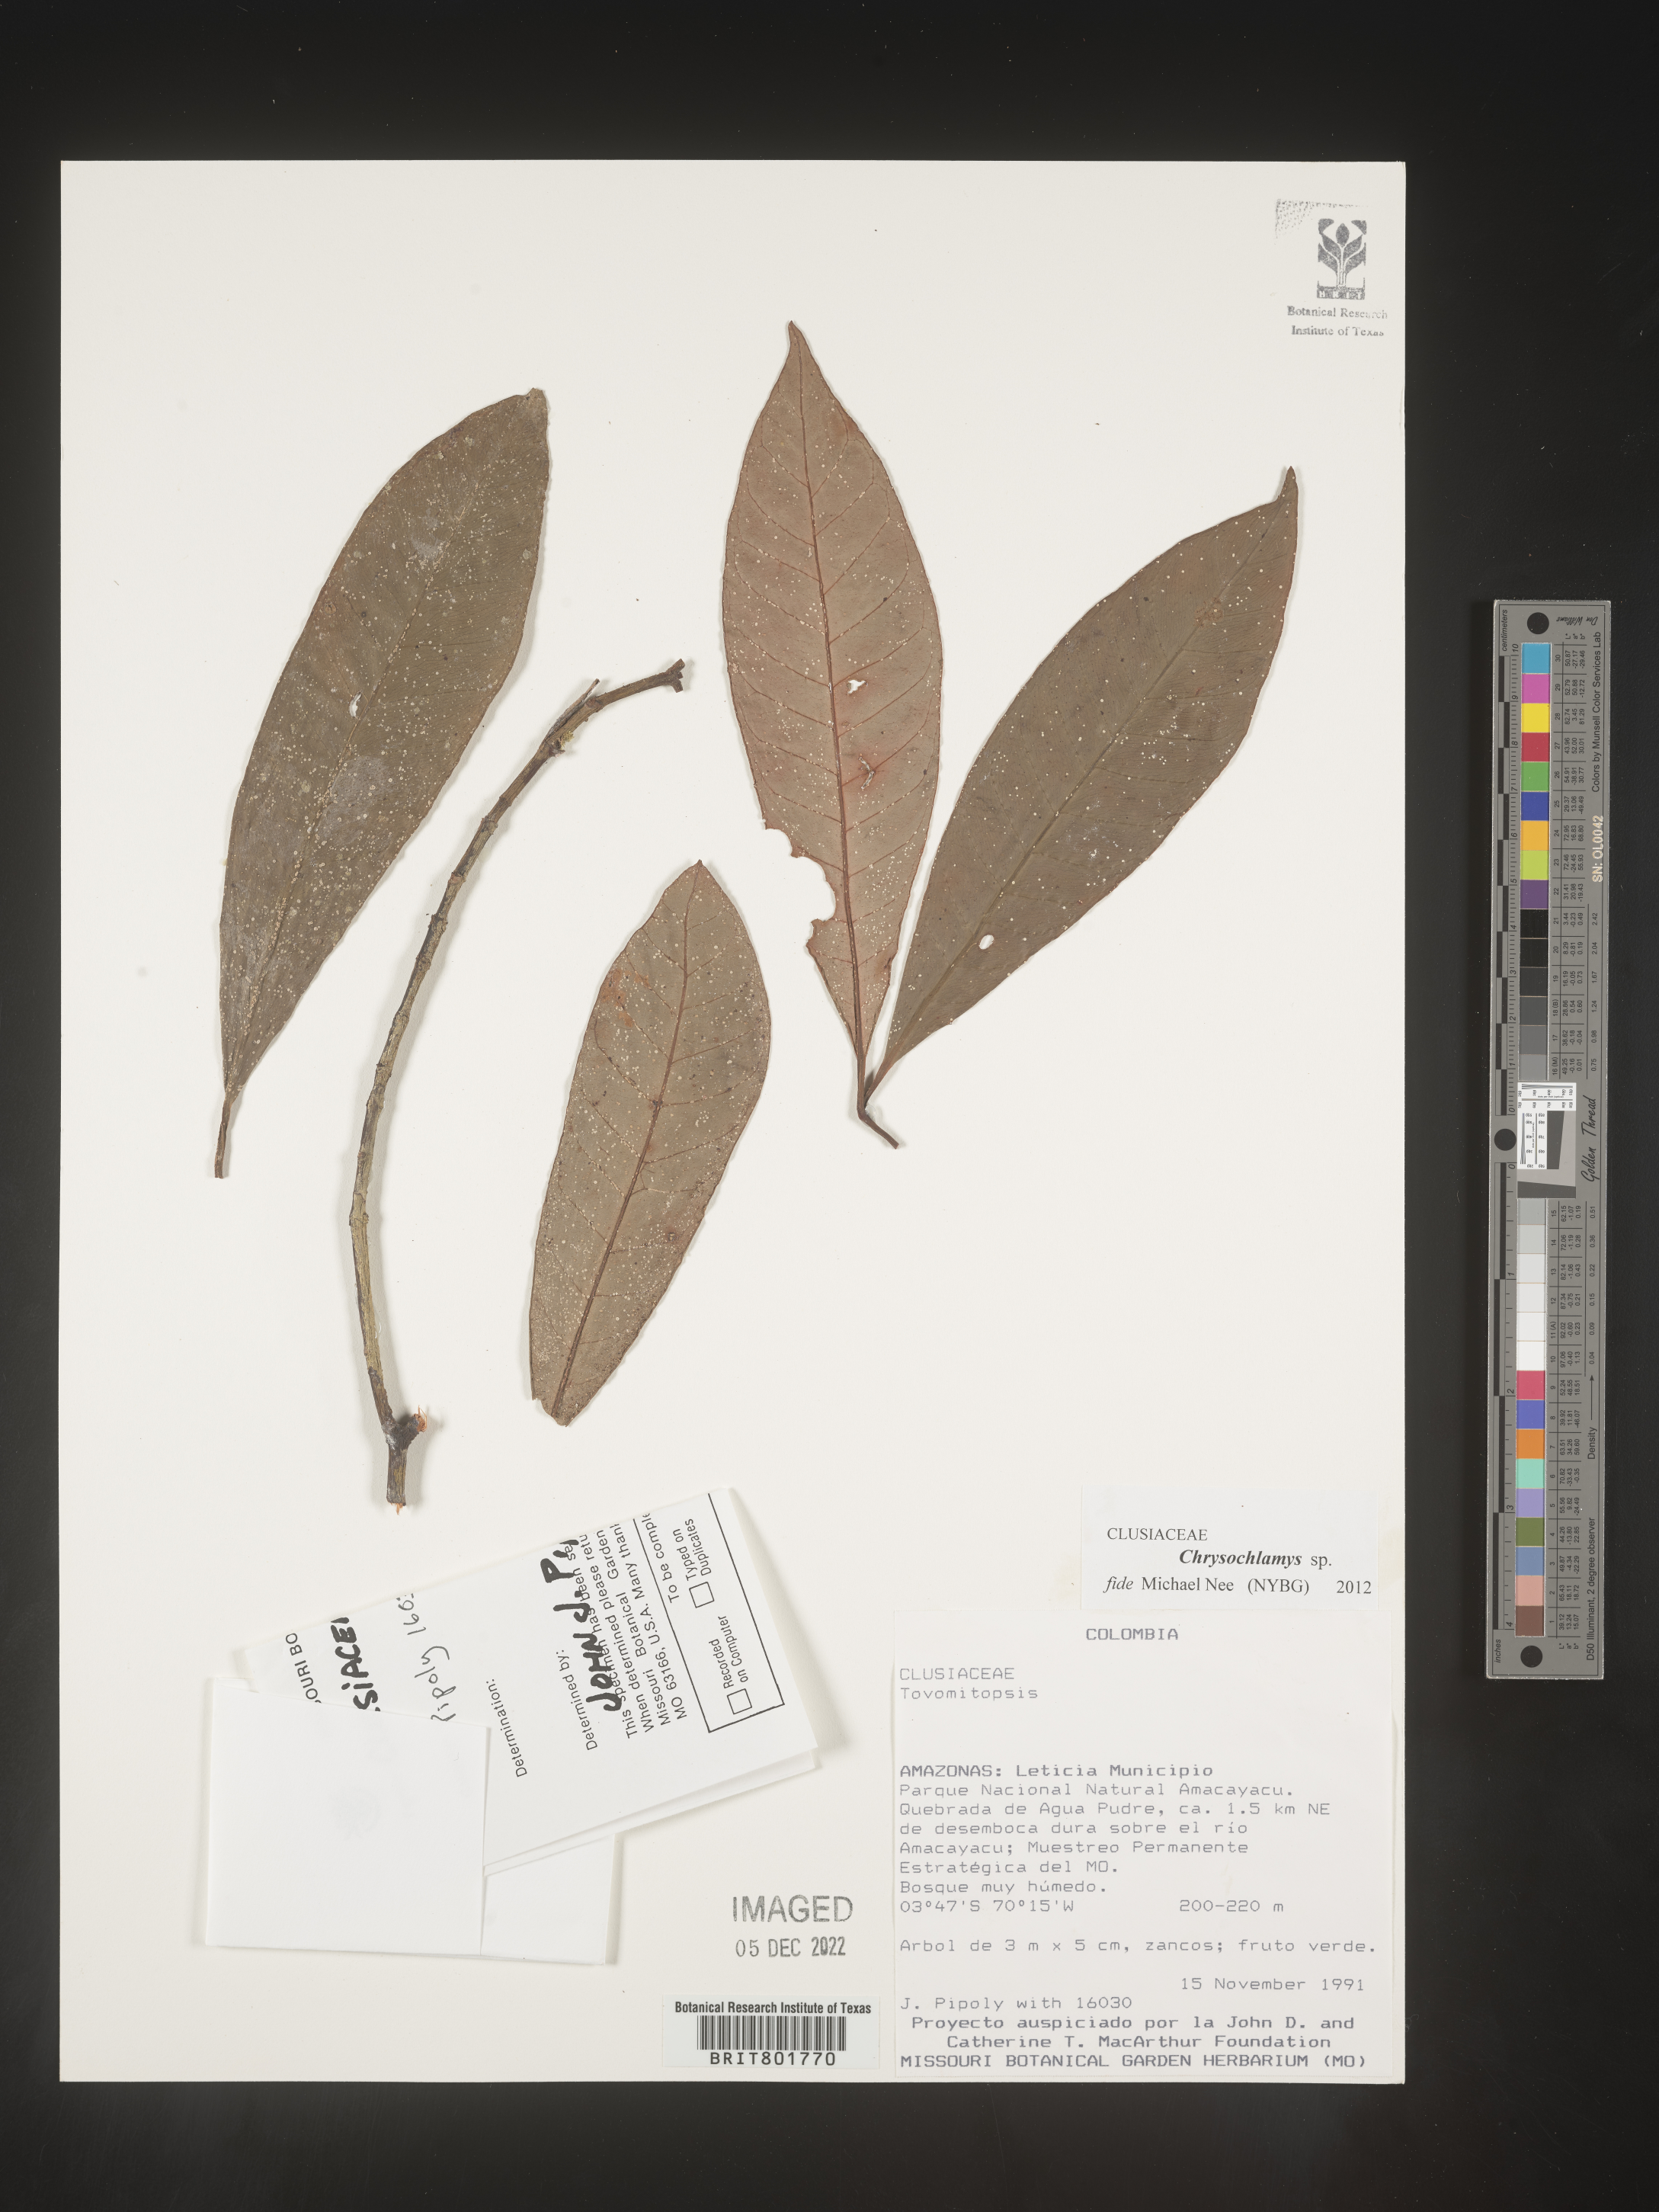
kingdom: Plantae
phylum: Tracheophyta
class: Magnoliopsida
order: Malpighiales
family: Clusiaceae
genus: Chrysochlamys
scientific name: Chrysochlamys
